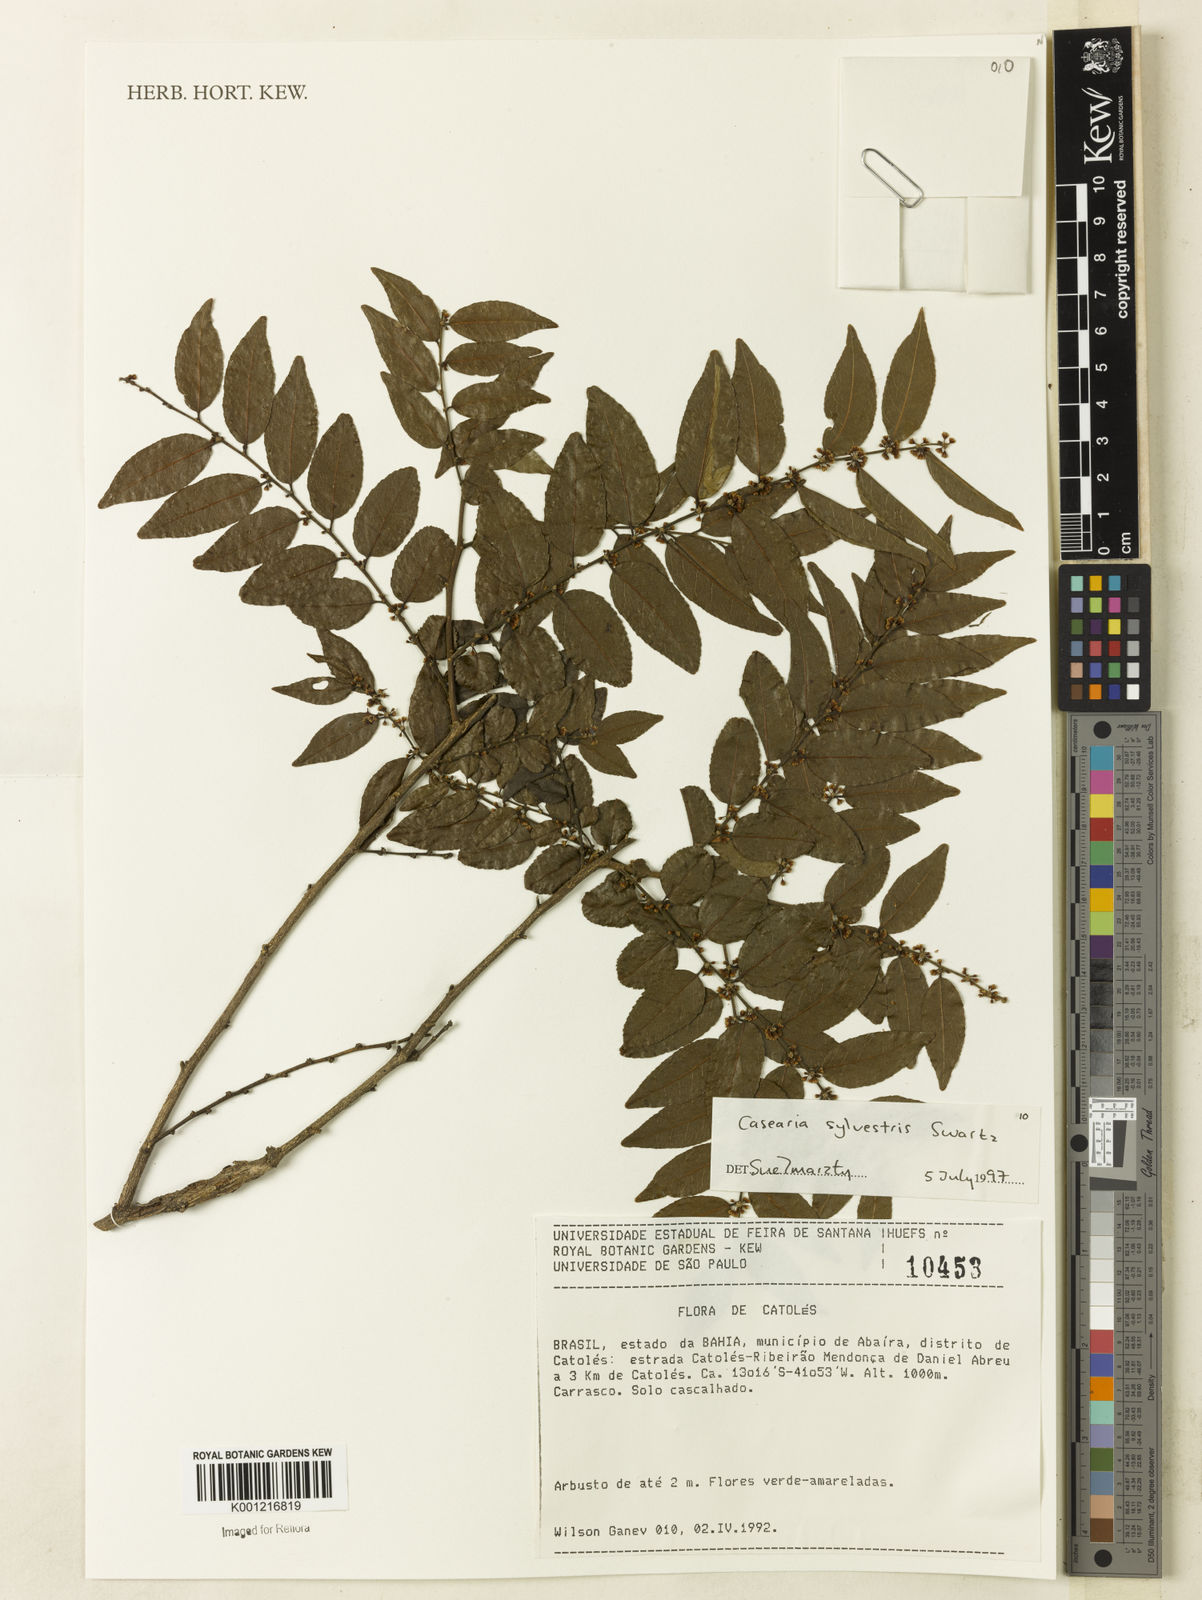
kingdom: Plantae
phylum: Tracheophyta
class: Magnoliopsida
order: Malpighiales
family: Salicaceae
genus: Casearia
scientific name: Casearia sylvestris
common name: Wild sage
